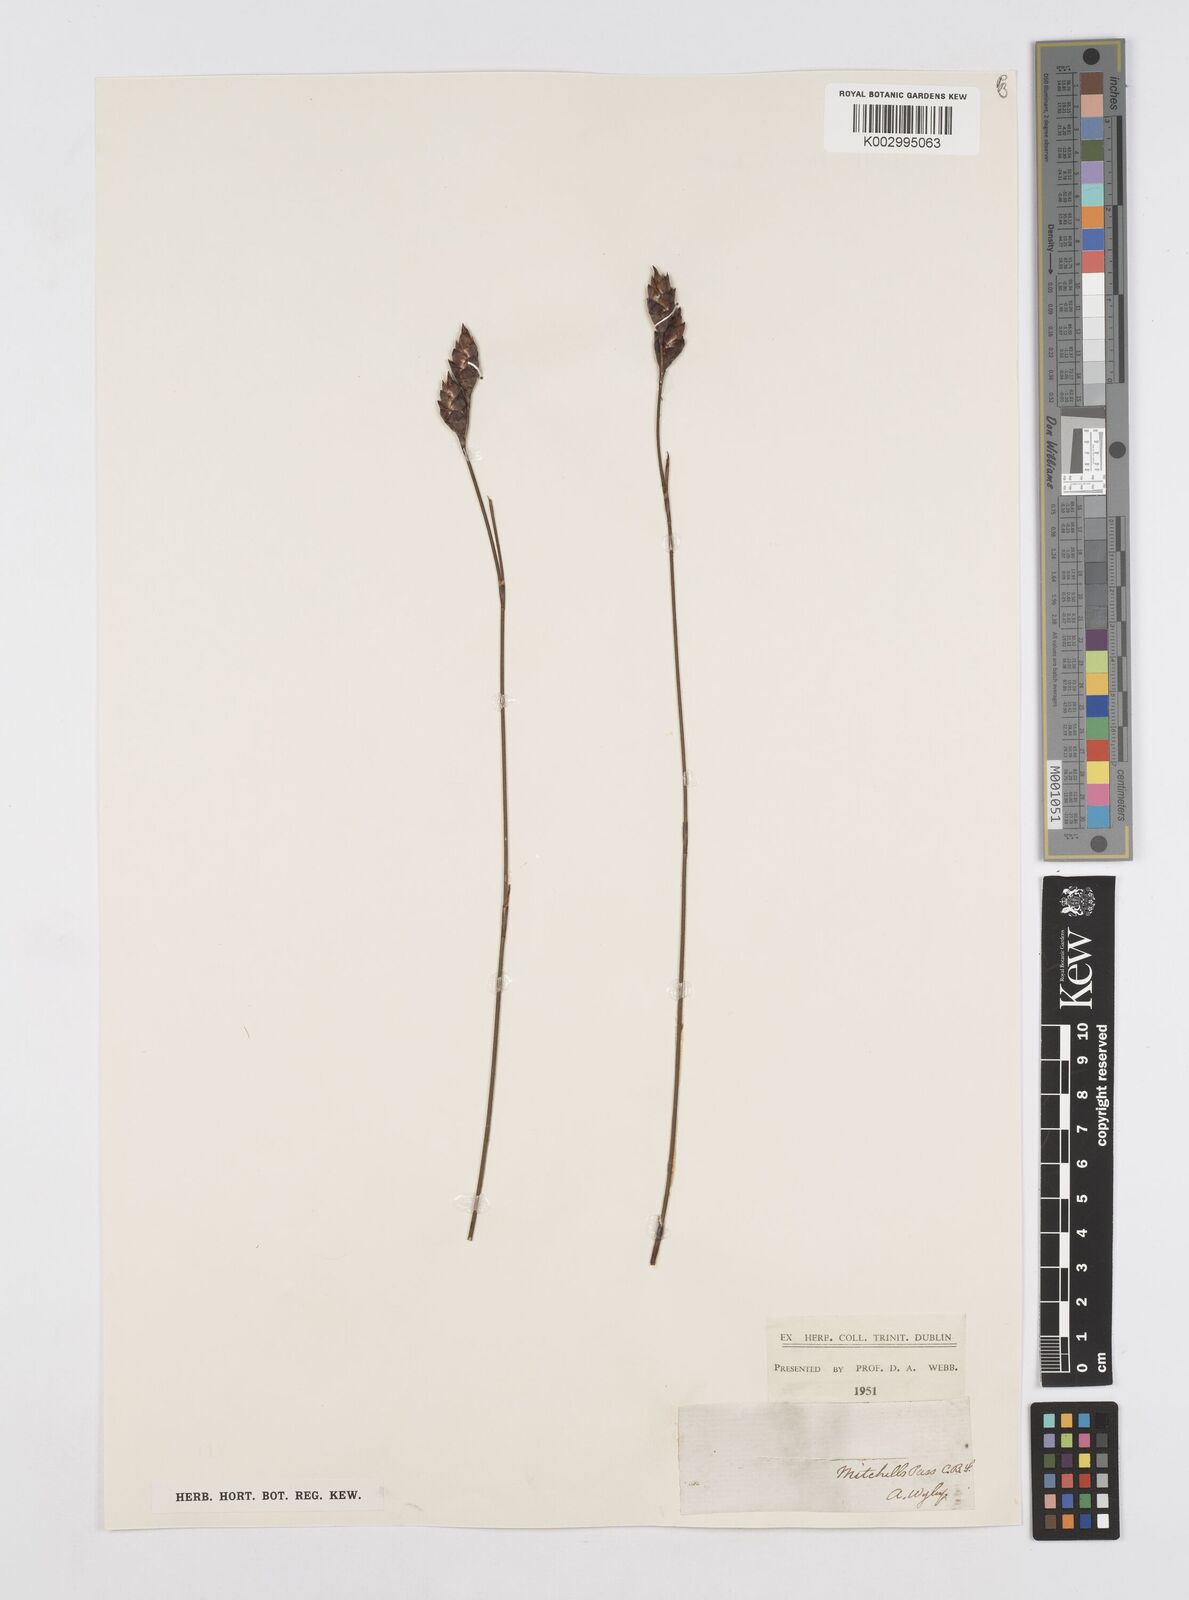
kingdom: Plantae
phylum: Tracheophyta
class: Liliopsida
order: Poales
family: Restionaceae
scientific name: Restionaceae
